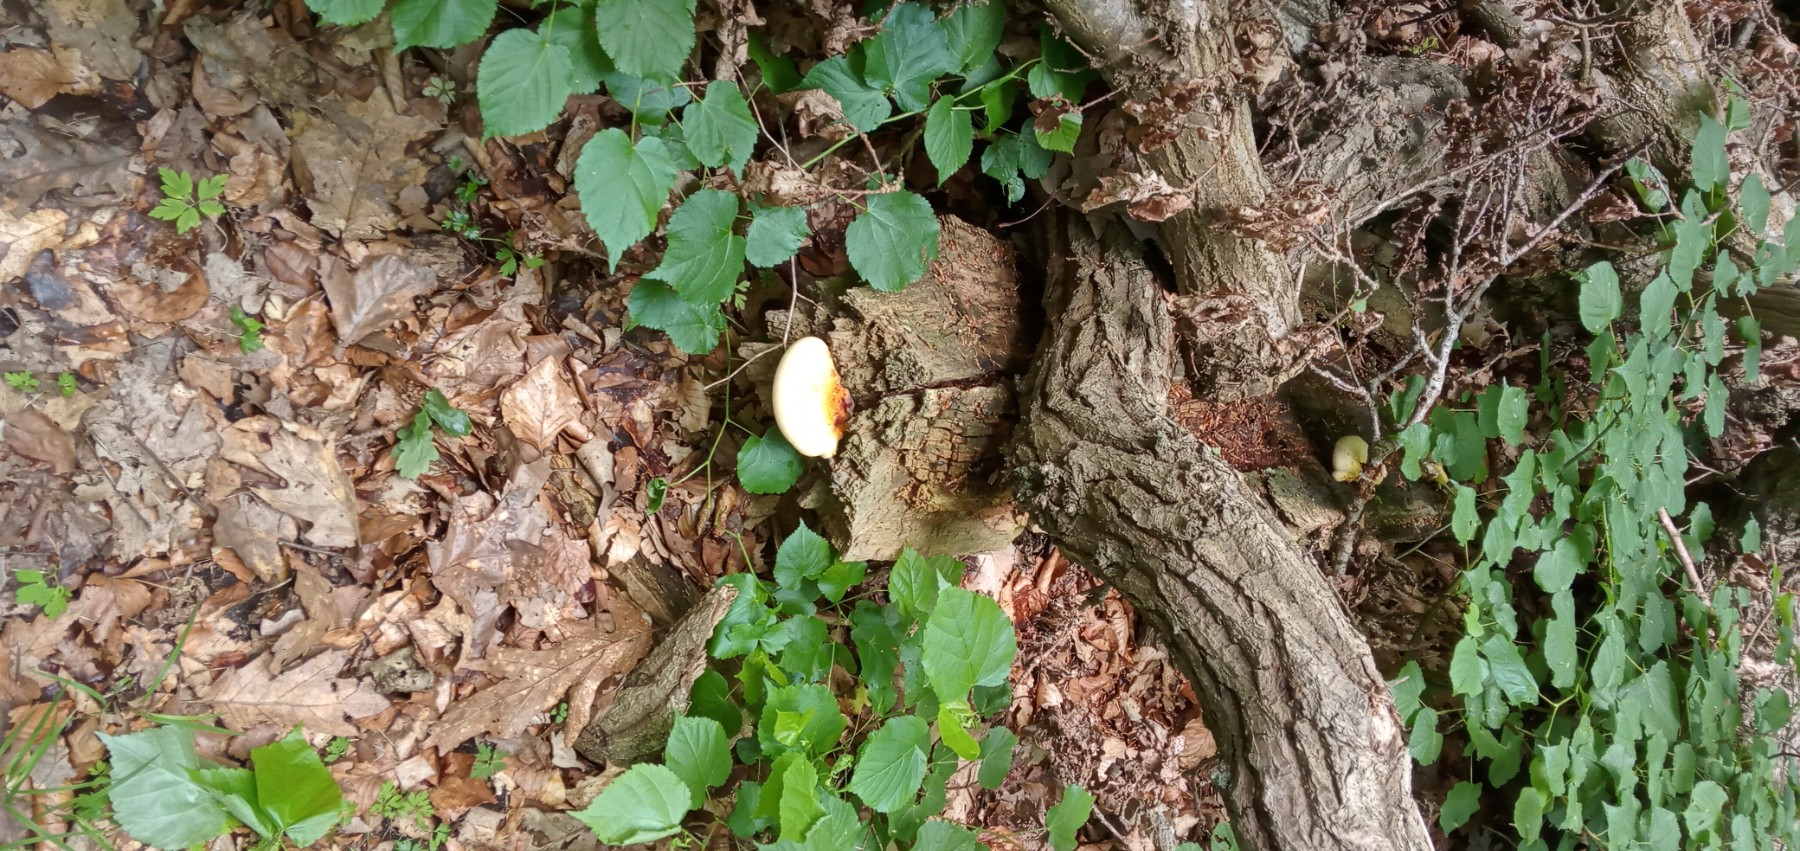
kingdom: Fungi
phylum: Basidiomycota
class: Agaricomycetes
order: Polyporales
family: Fomitopsidaceae
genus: Buglossoporus
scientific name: Buglossoporus quercinus
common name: egetunge
